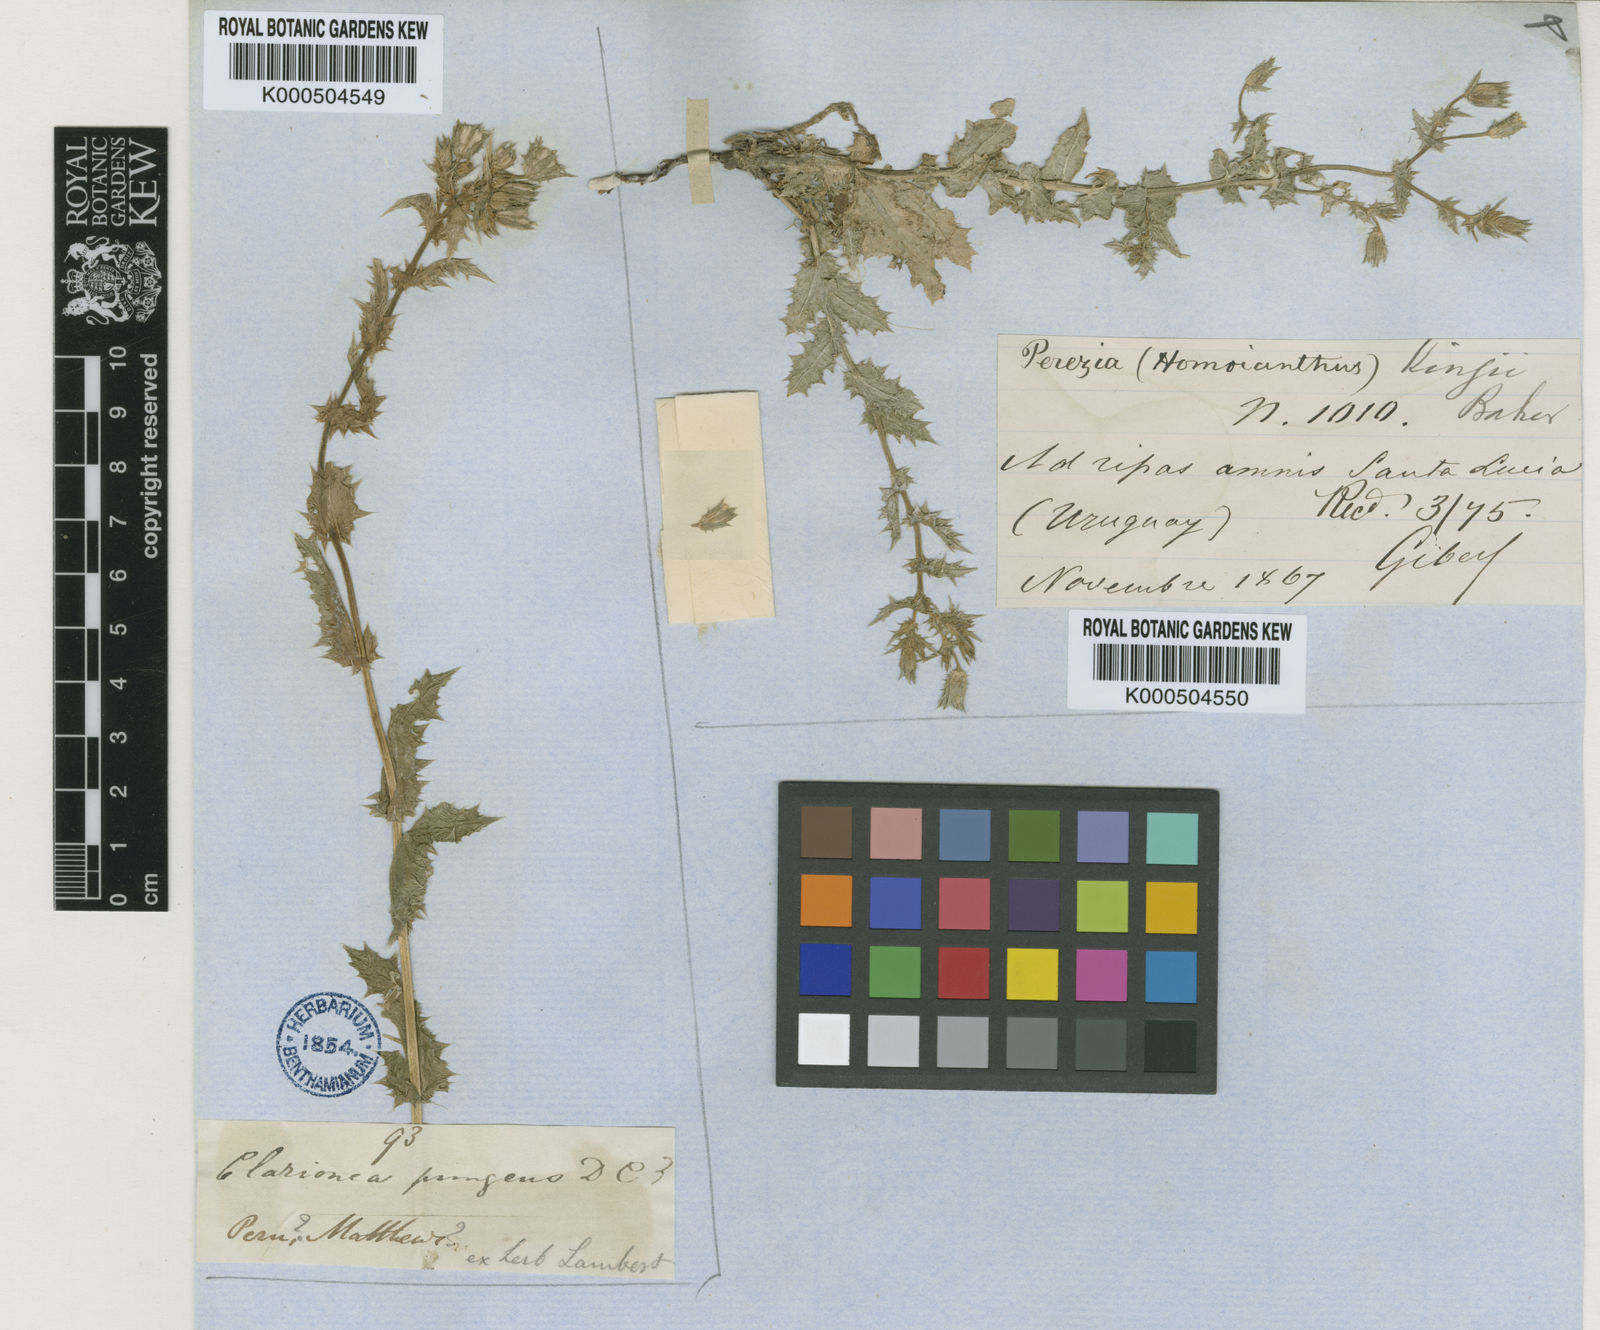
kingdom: Plantae
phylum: Tracheophyta
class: Magnoliopsida
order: Asterales
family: Asteraceae
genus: Perezia
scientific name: Perezia kingii
